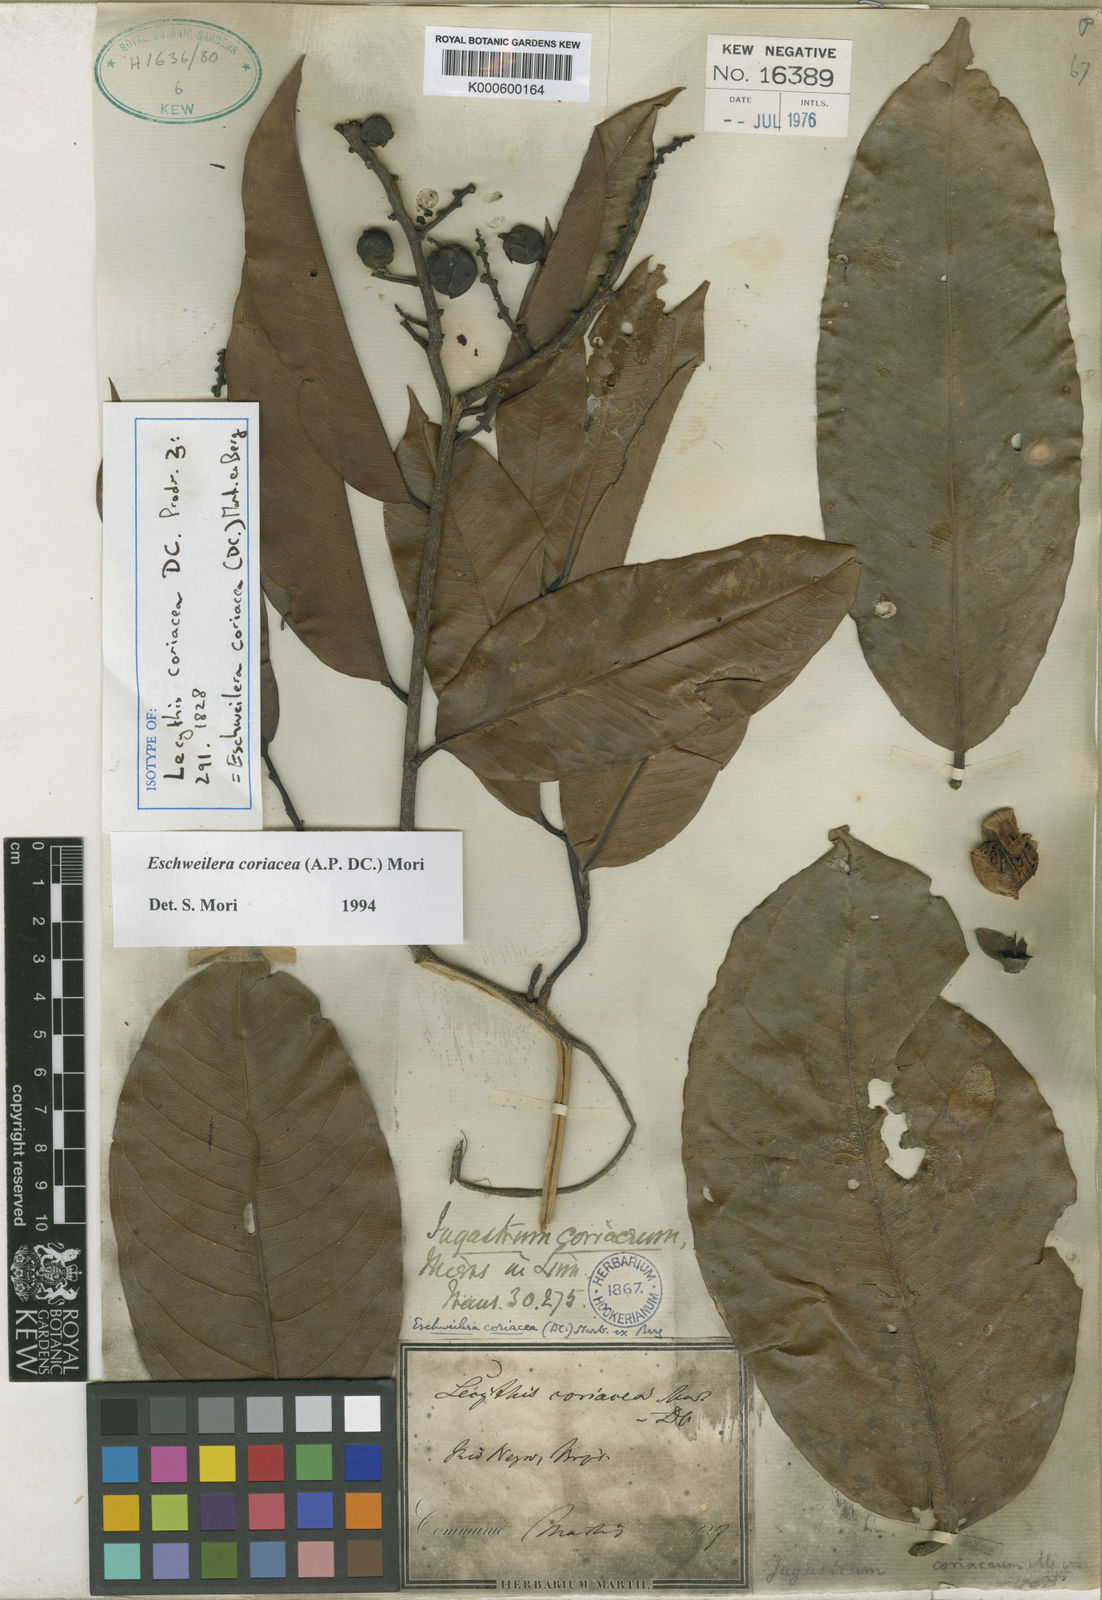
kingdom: Plantae
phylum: Tracheophyta
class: Magnoliopsida
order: Ericales
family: Lecythidaceae
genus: Eschweilera
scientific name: Eschweilera coriacea
